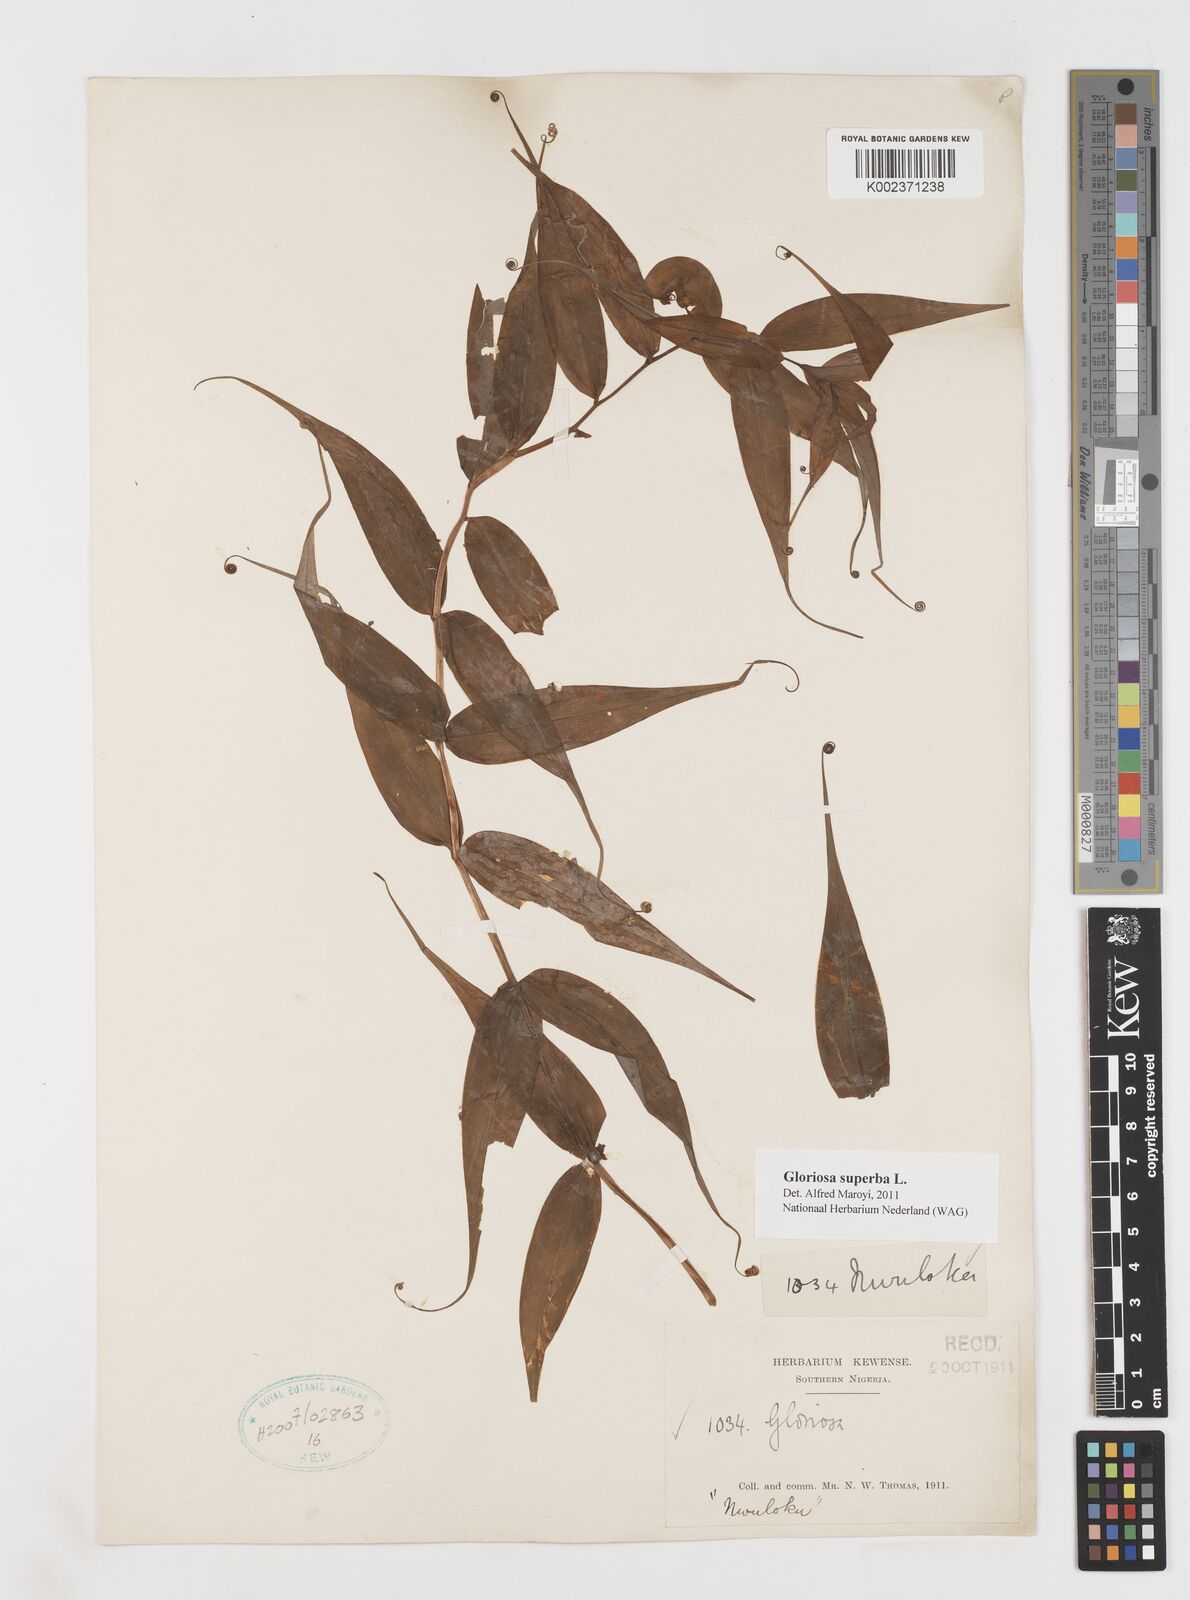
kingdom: Plantae
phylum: Tracheophyta
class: Liliopsida
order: Liliales
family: Colchicaceae
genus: Gloriosa
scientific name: Gloriosa superba
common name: Flame lily
